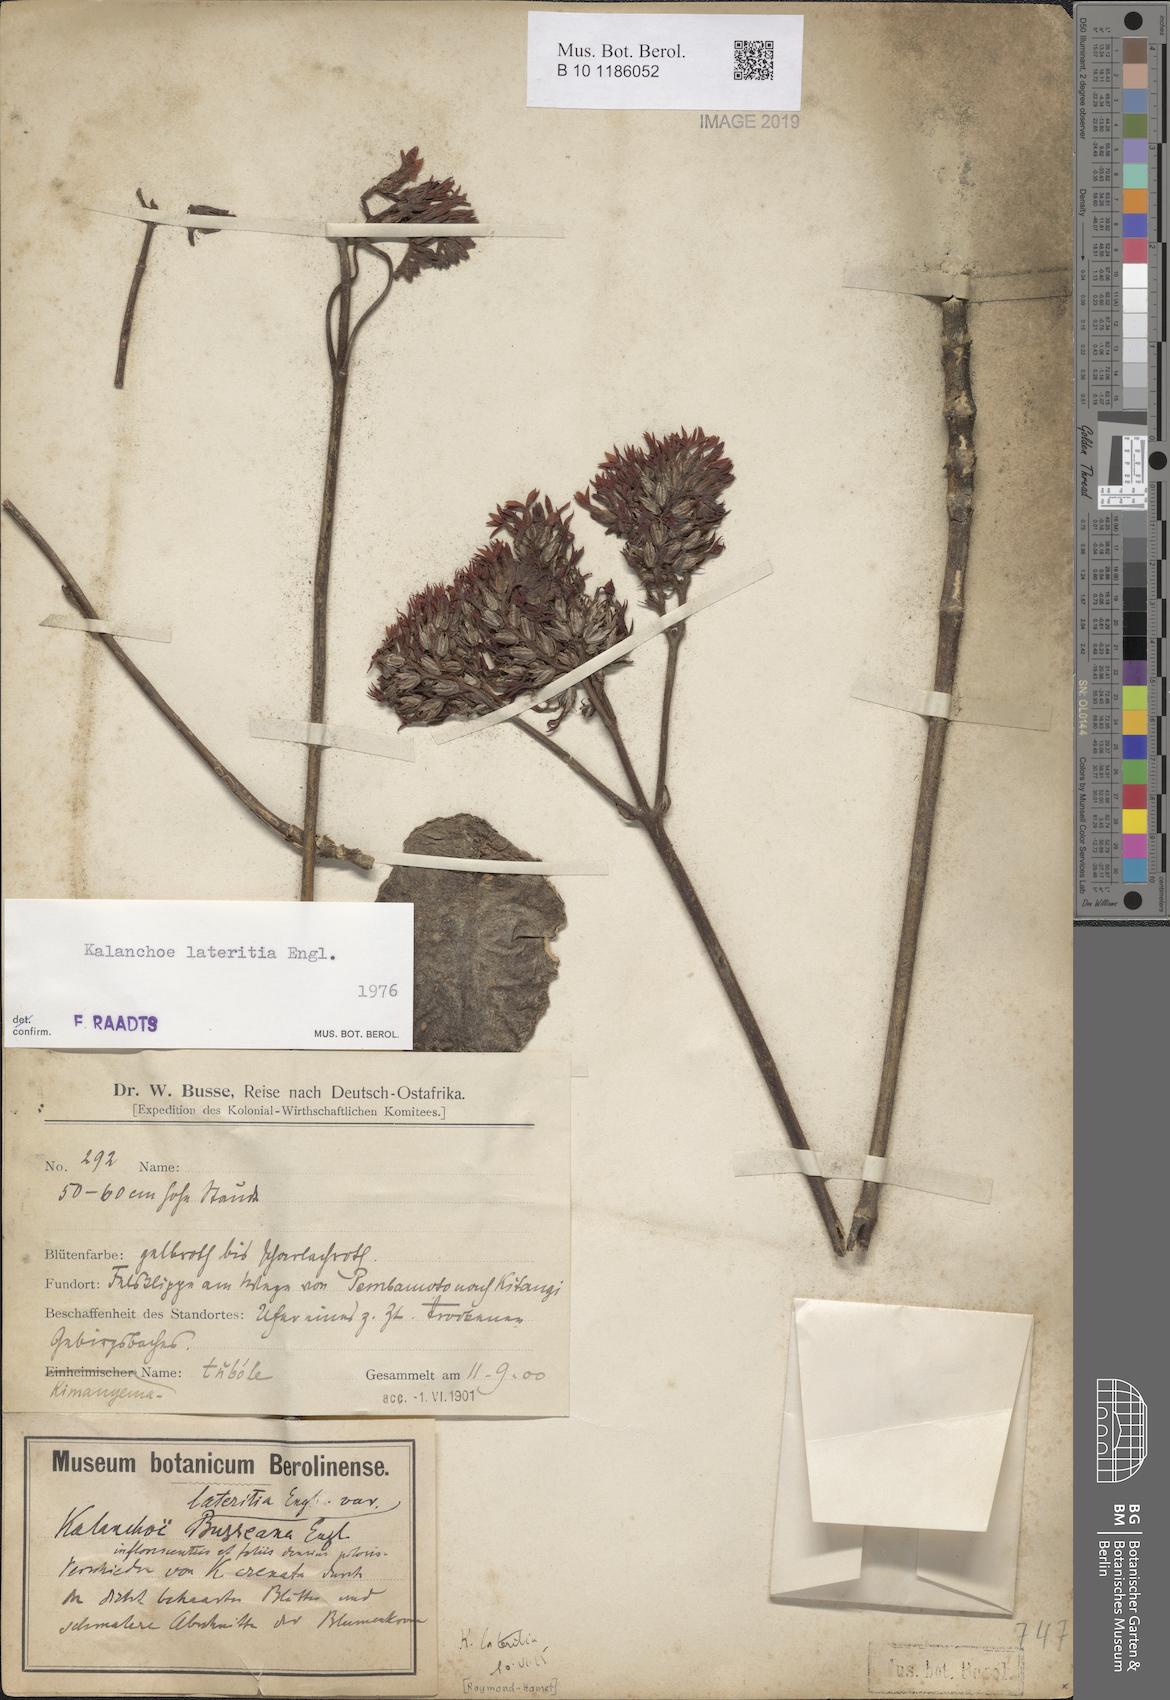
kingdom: Plantae
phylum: Tracheophyta
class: Magnoliopsida
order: Saxifragales
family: Crassulaceae
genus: Kalanchoe
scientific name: Kalanchoe lateritia
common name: Kalanchoe
